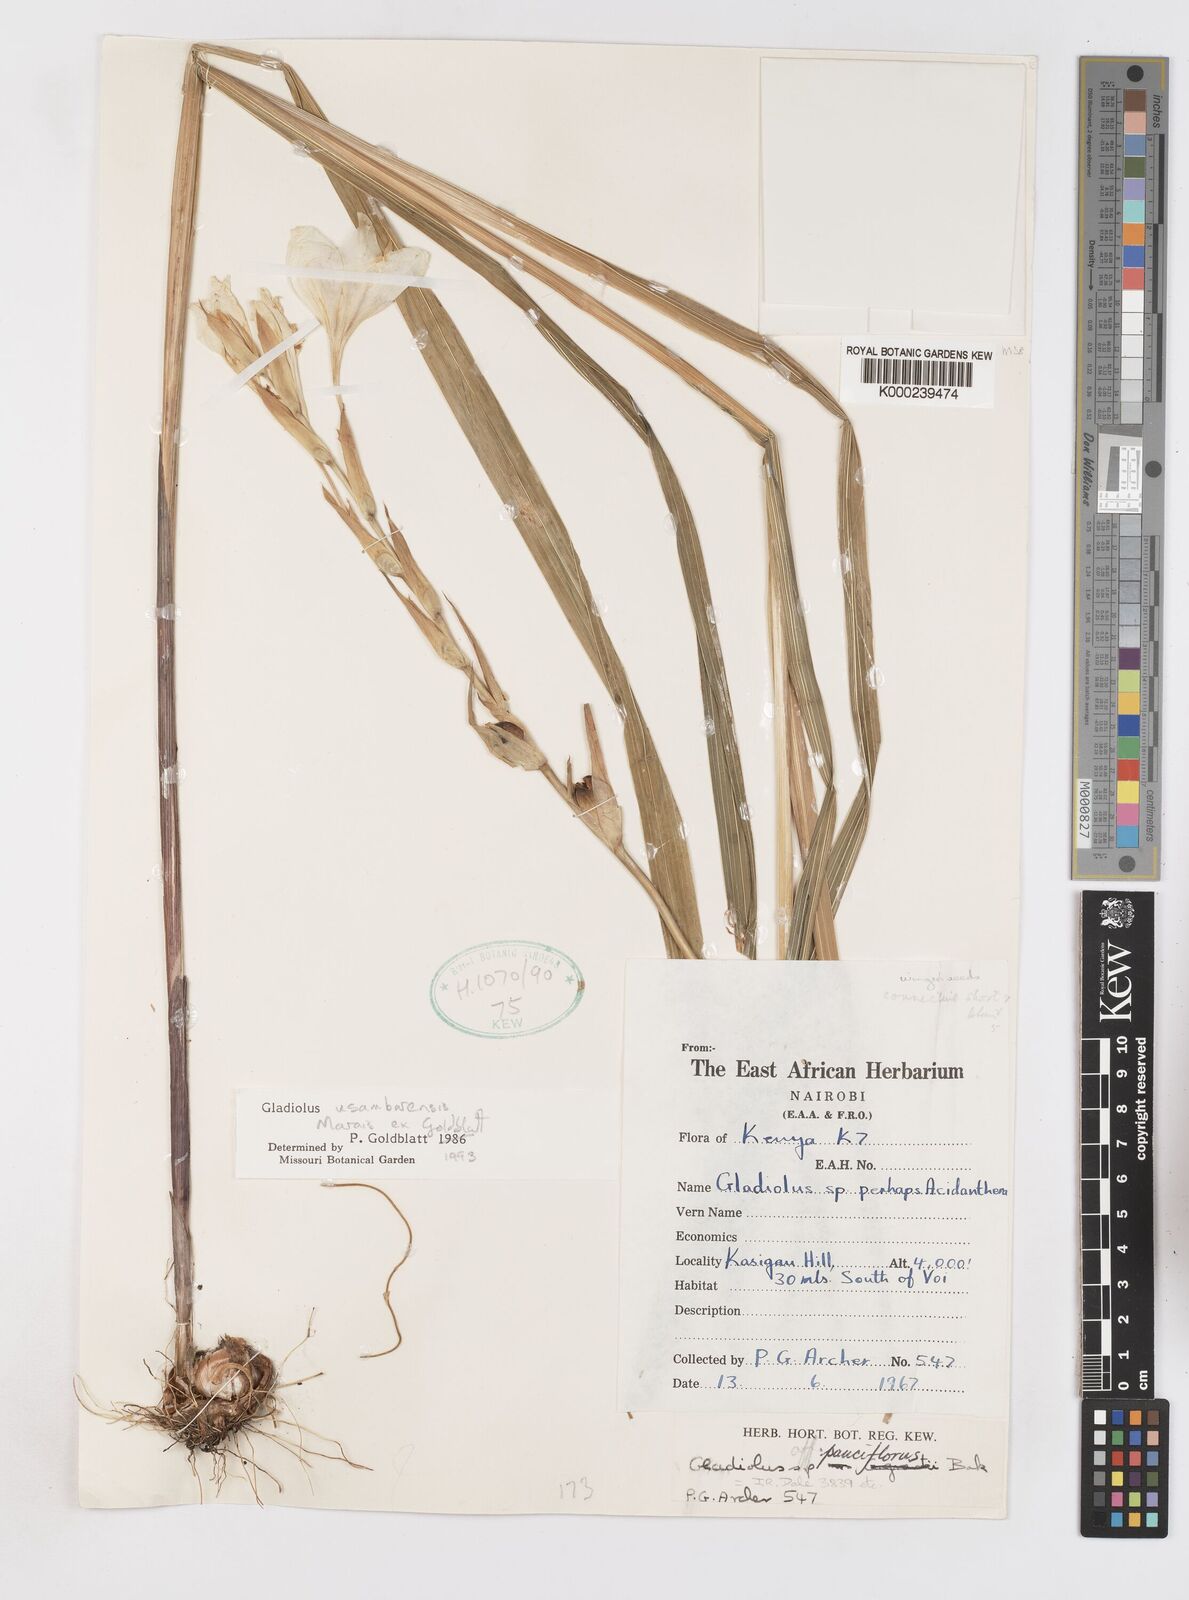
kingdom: Plantae
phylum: Tracheophyta
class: Liliopsida
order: Asparagales
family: Iridaceae
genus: Gladiolus
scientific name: Gladiolus usambarensis
